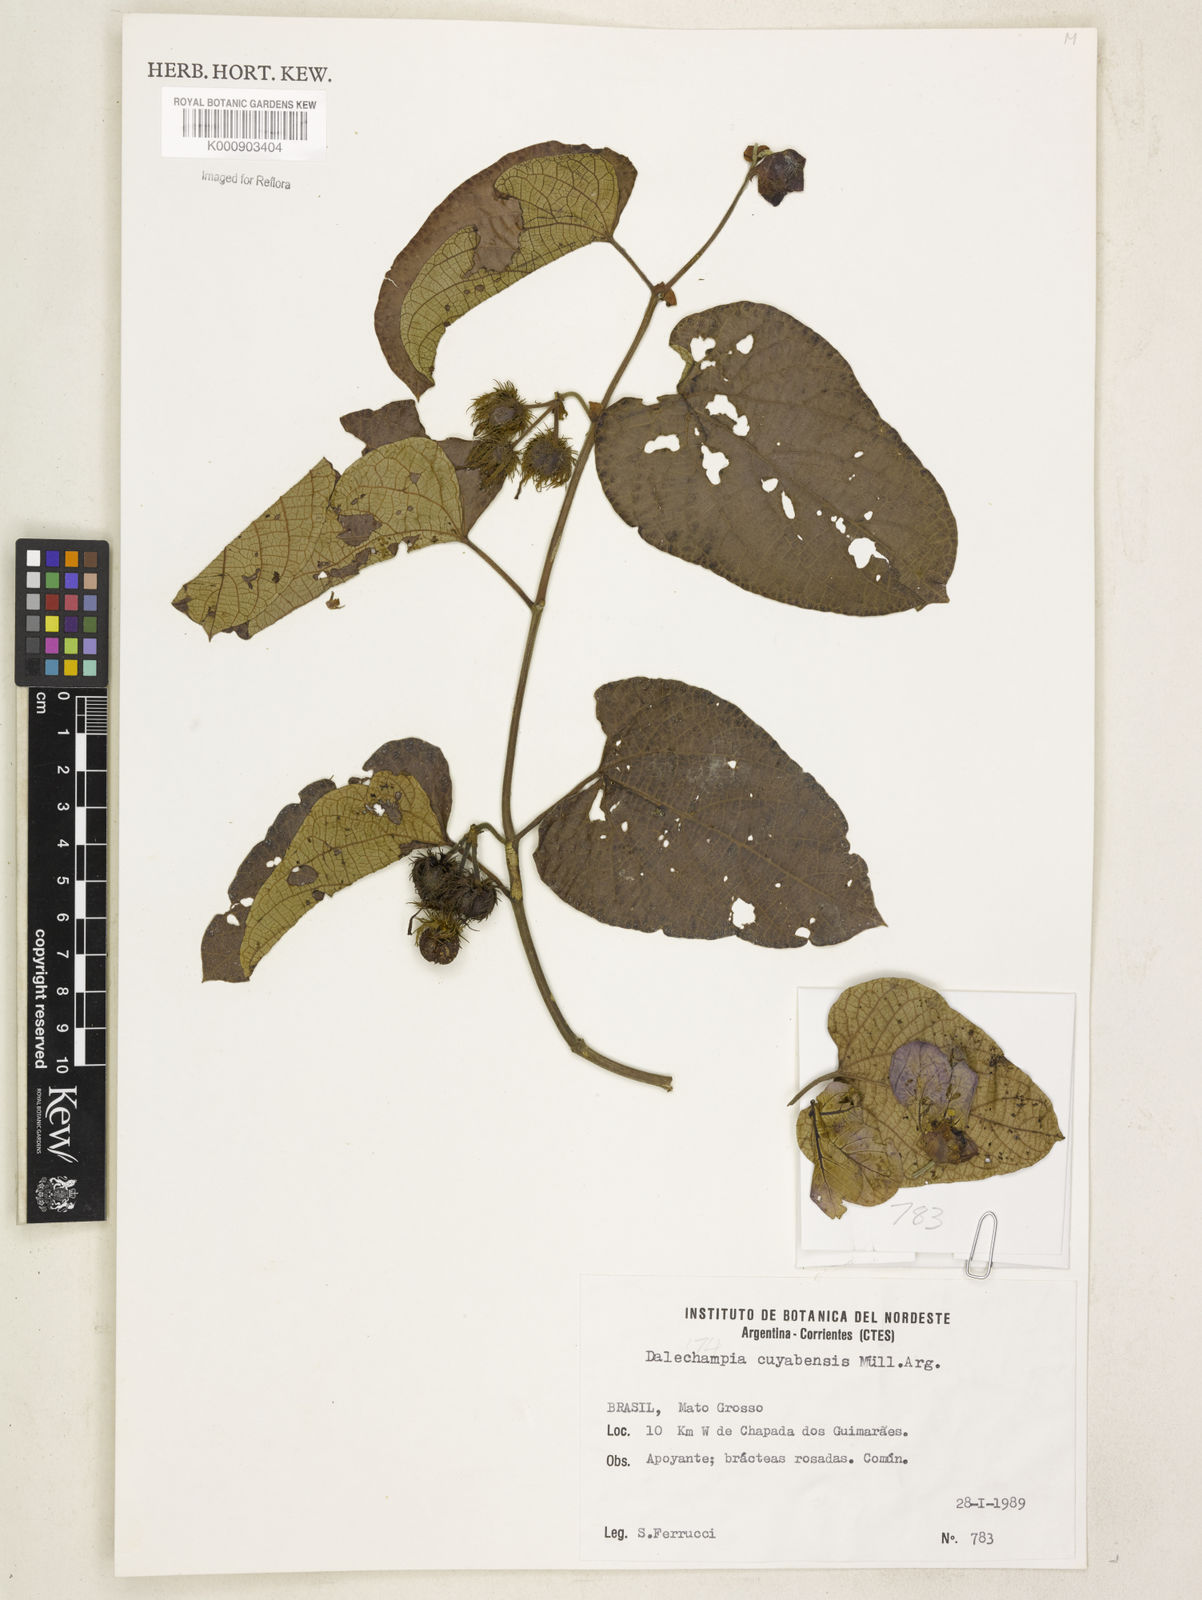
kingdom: Plantae
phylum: Tracheophyta
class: Magnoliopsida
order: Malpighiales
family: Euphorbiaceae
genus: Dalechampia
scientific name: Dalechampia
